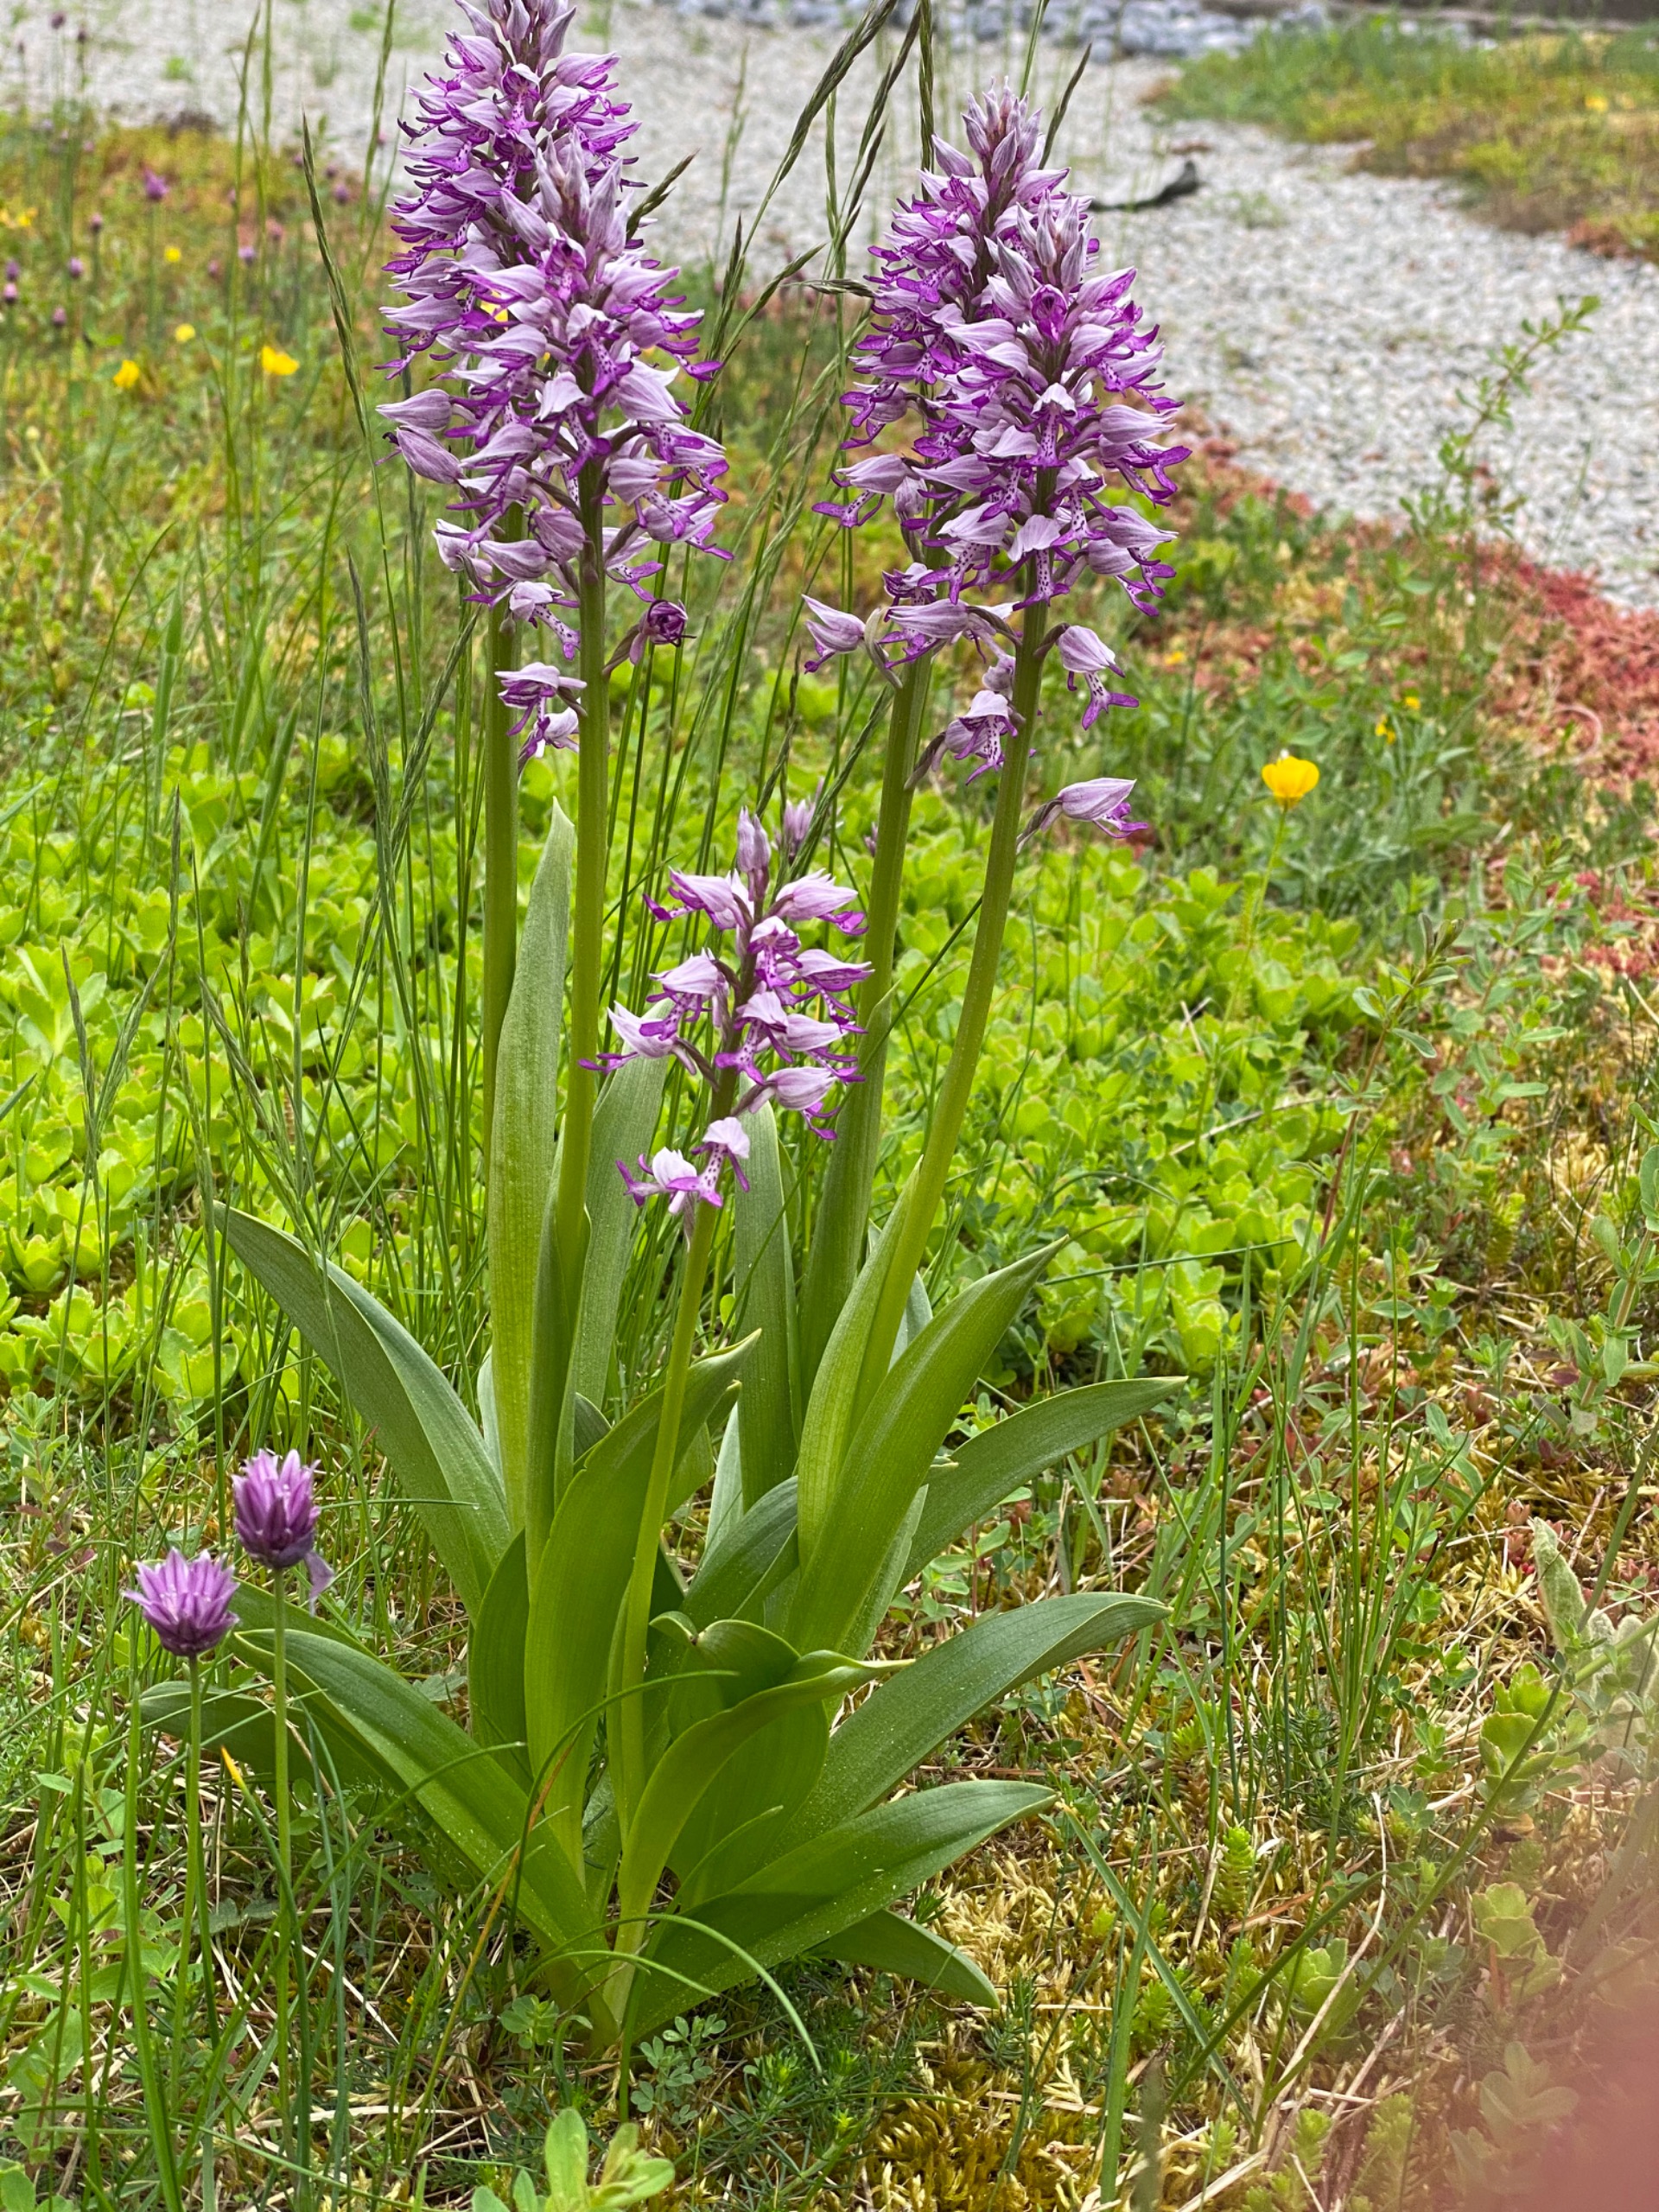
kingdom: Plantae
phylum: Tracheophyta
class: Liliopsida
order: Asparagales
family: Orchidaceae
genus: Neotinea
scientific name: Neotinea
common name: Gøgeurt (Neotinea-slægten)
